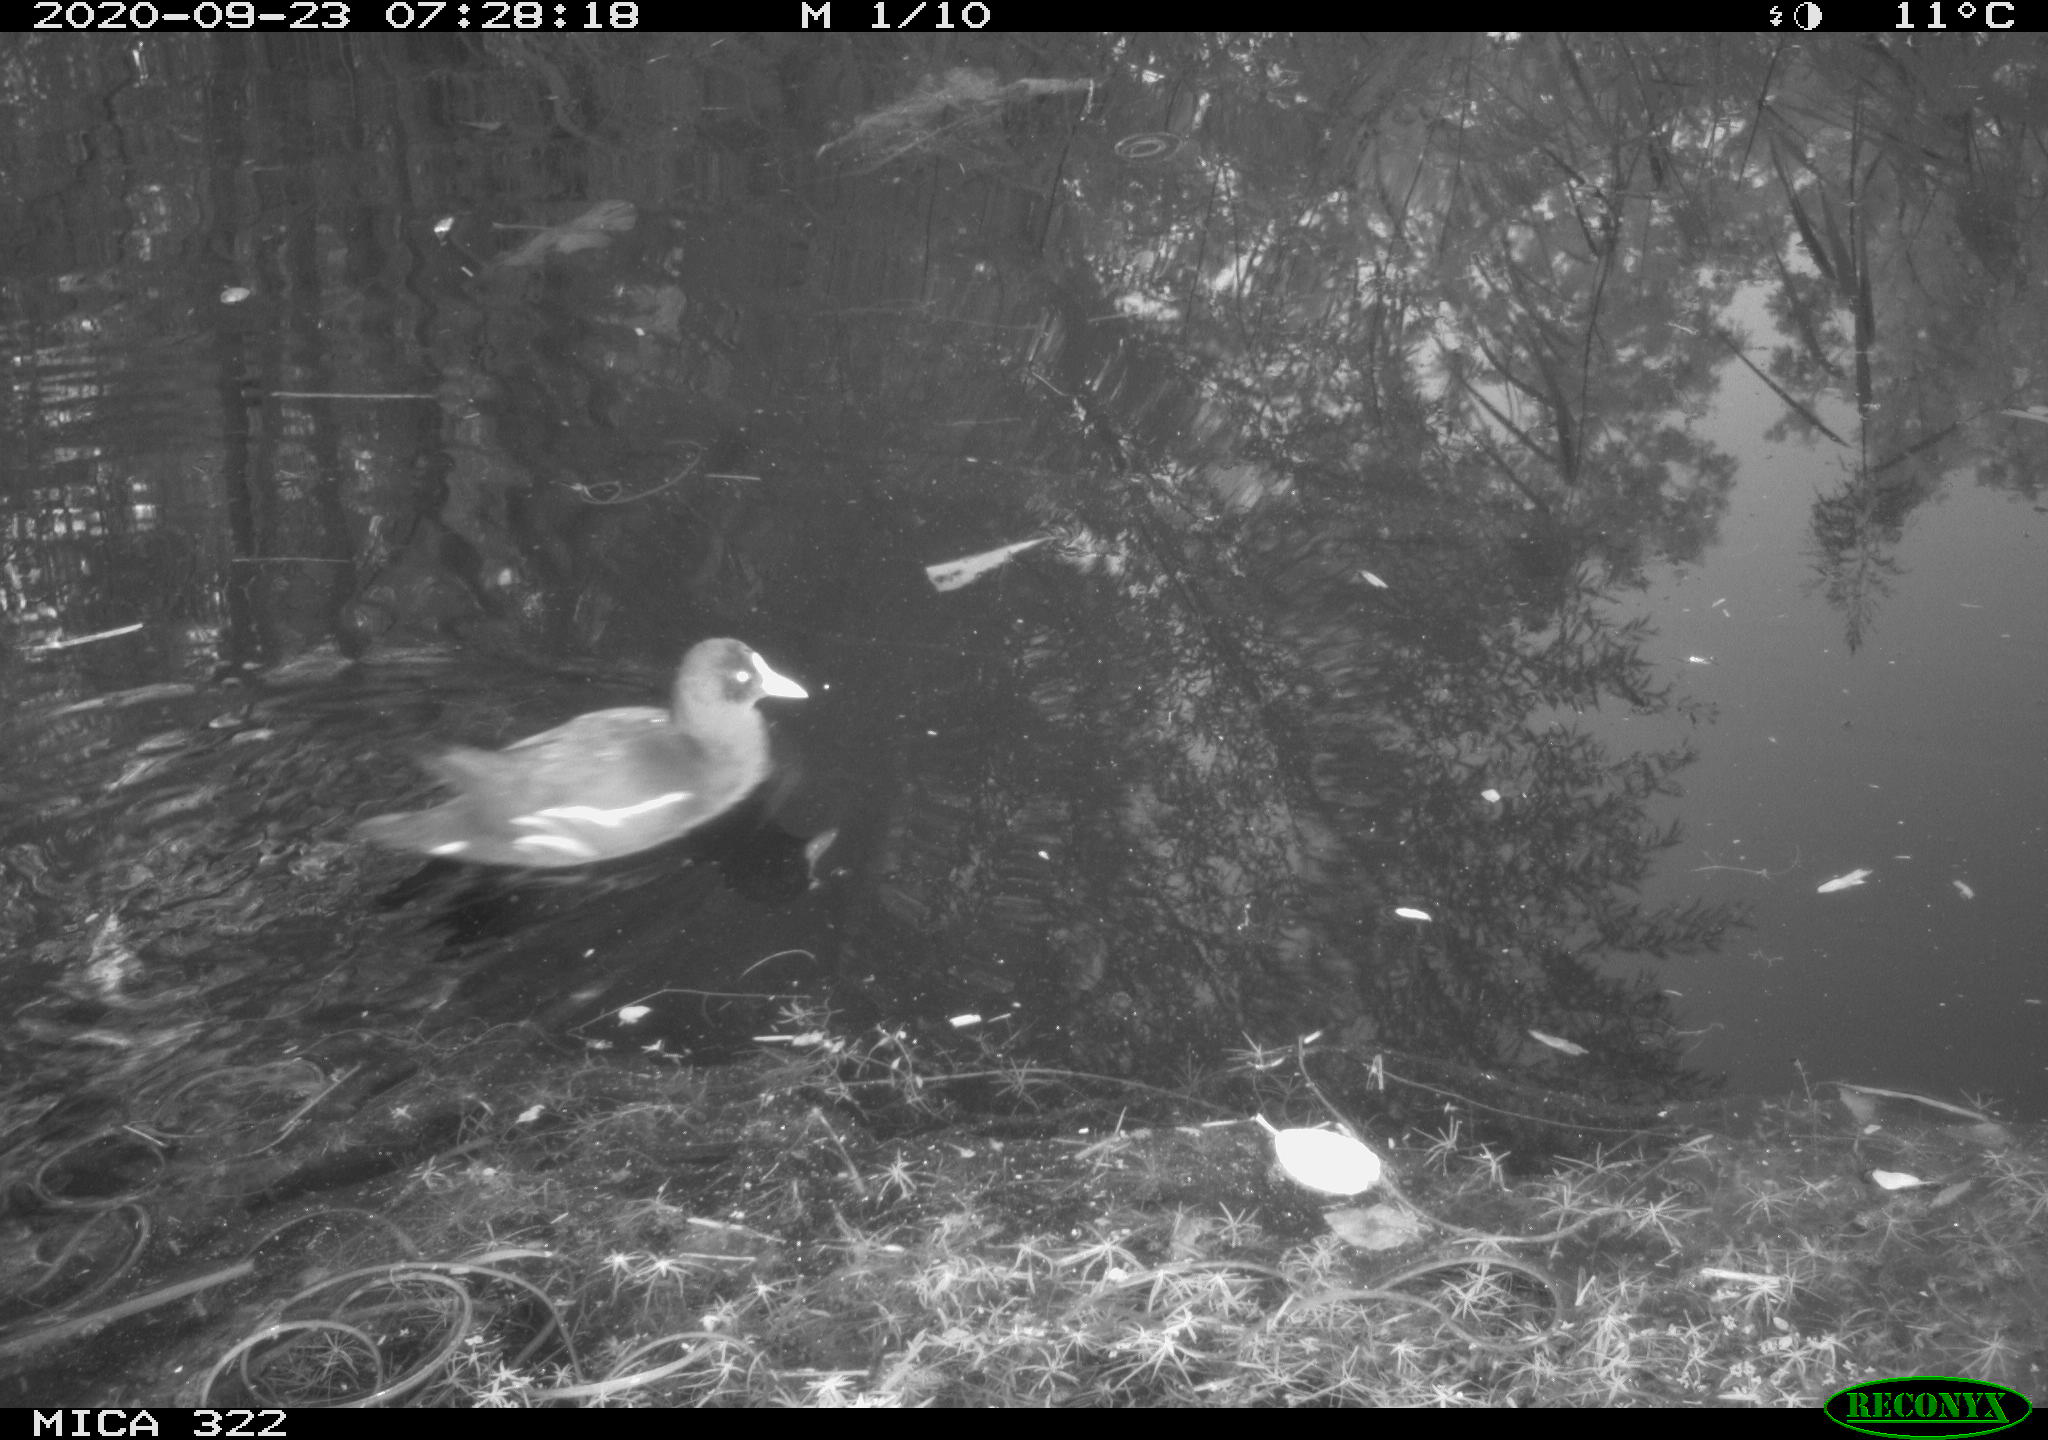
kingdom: Animalia
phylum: Chordata
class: Aves
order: Gruiformes
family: Rallidae
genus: Gallinula
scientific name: Gallinula chloropus
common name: Common moorhen
